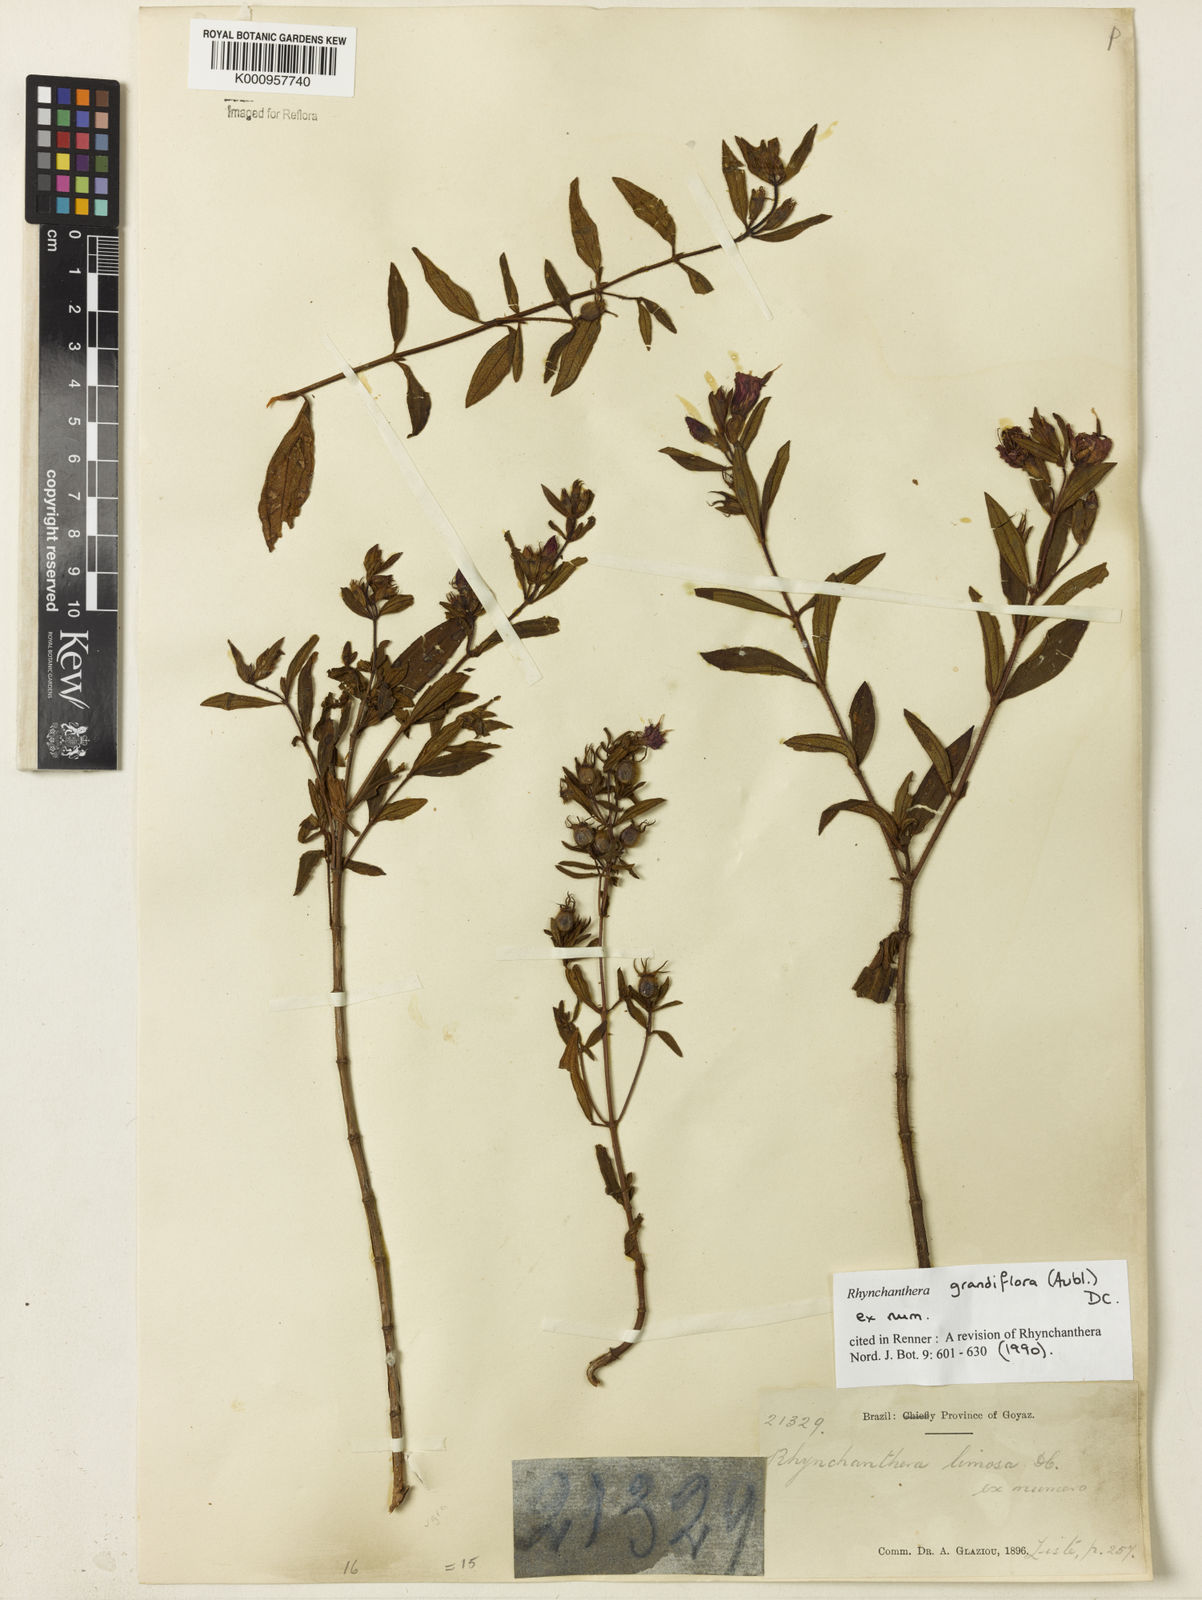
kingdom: Plantae
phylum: Tracheophyta
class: Magnoliopsida
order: Myrtales
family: Melastomataceae
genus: Rhynchanthera
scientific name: Rhynchanthera grandiflora
